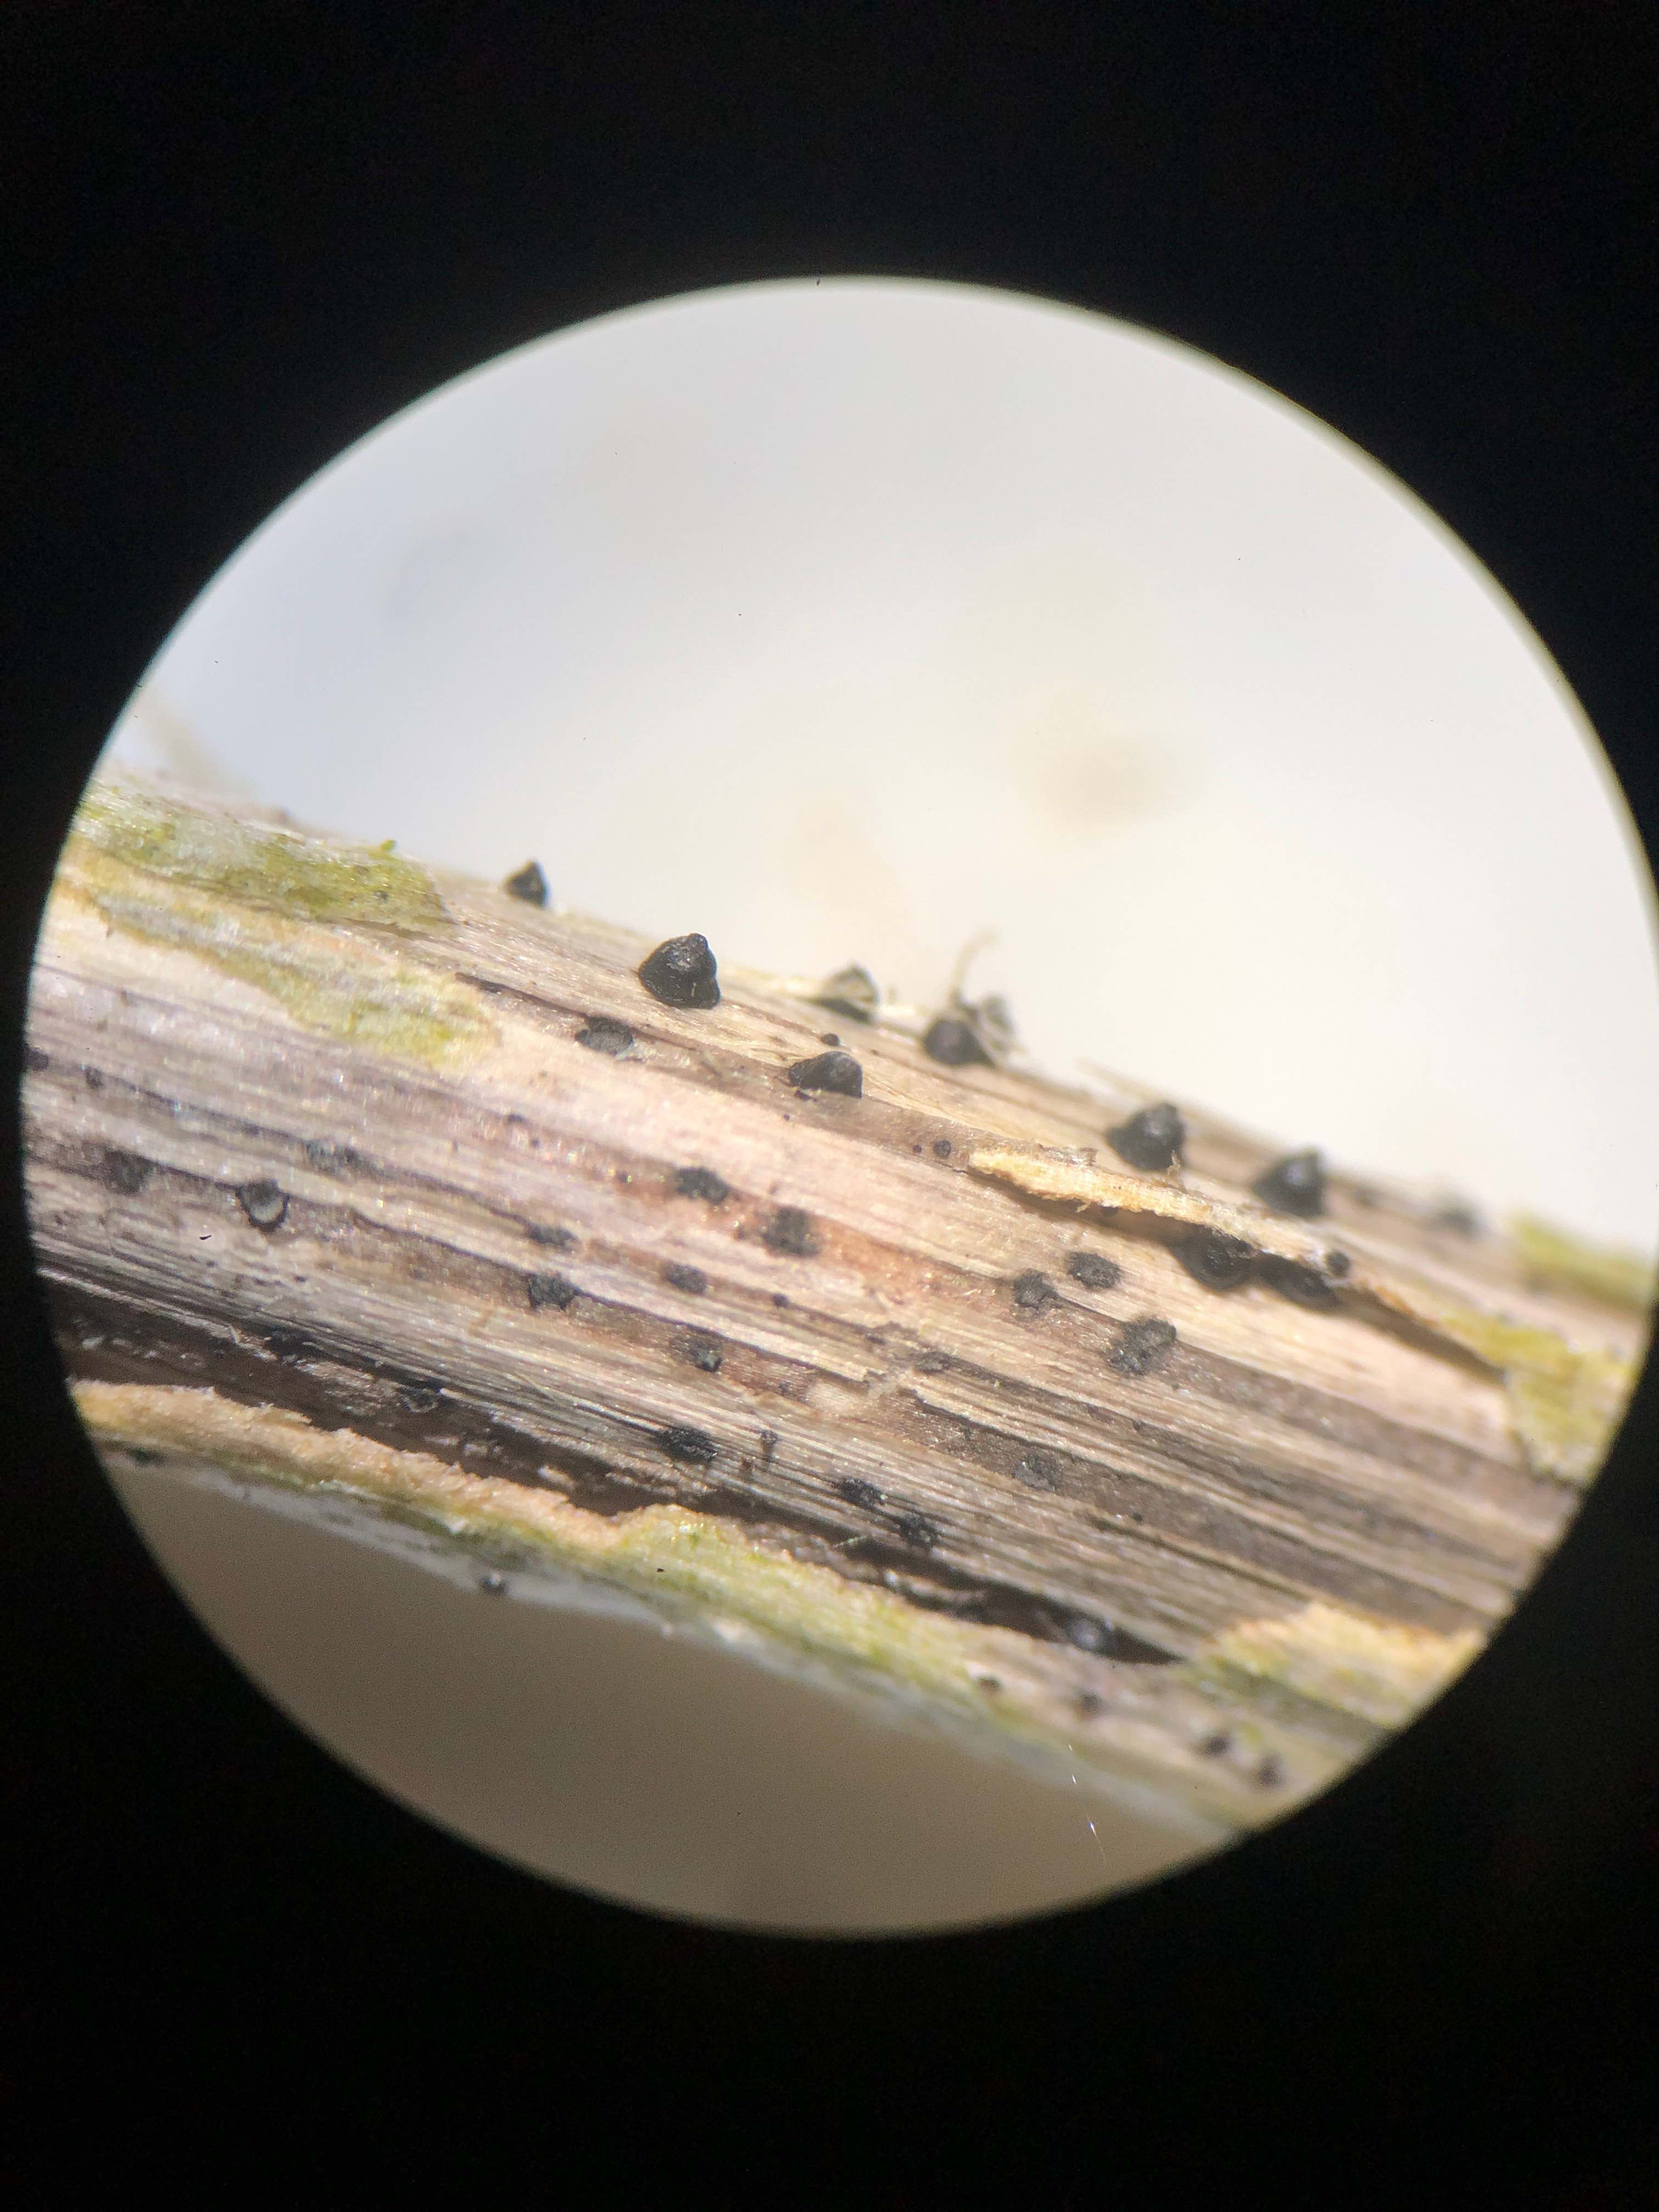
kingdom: Fungi
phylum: Ascomycota
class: Dothideomycetes
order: Pleosporales
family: Leptosphaeriaceae
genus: Leptosphaeria
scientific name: Leptosphaeria acuta
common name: spids kulkegle
